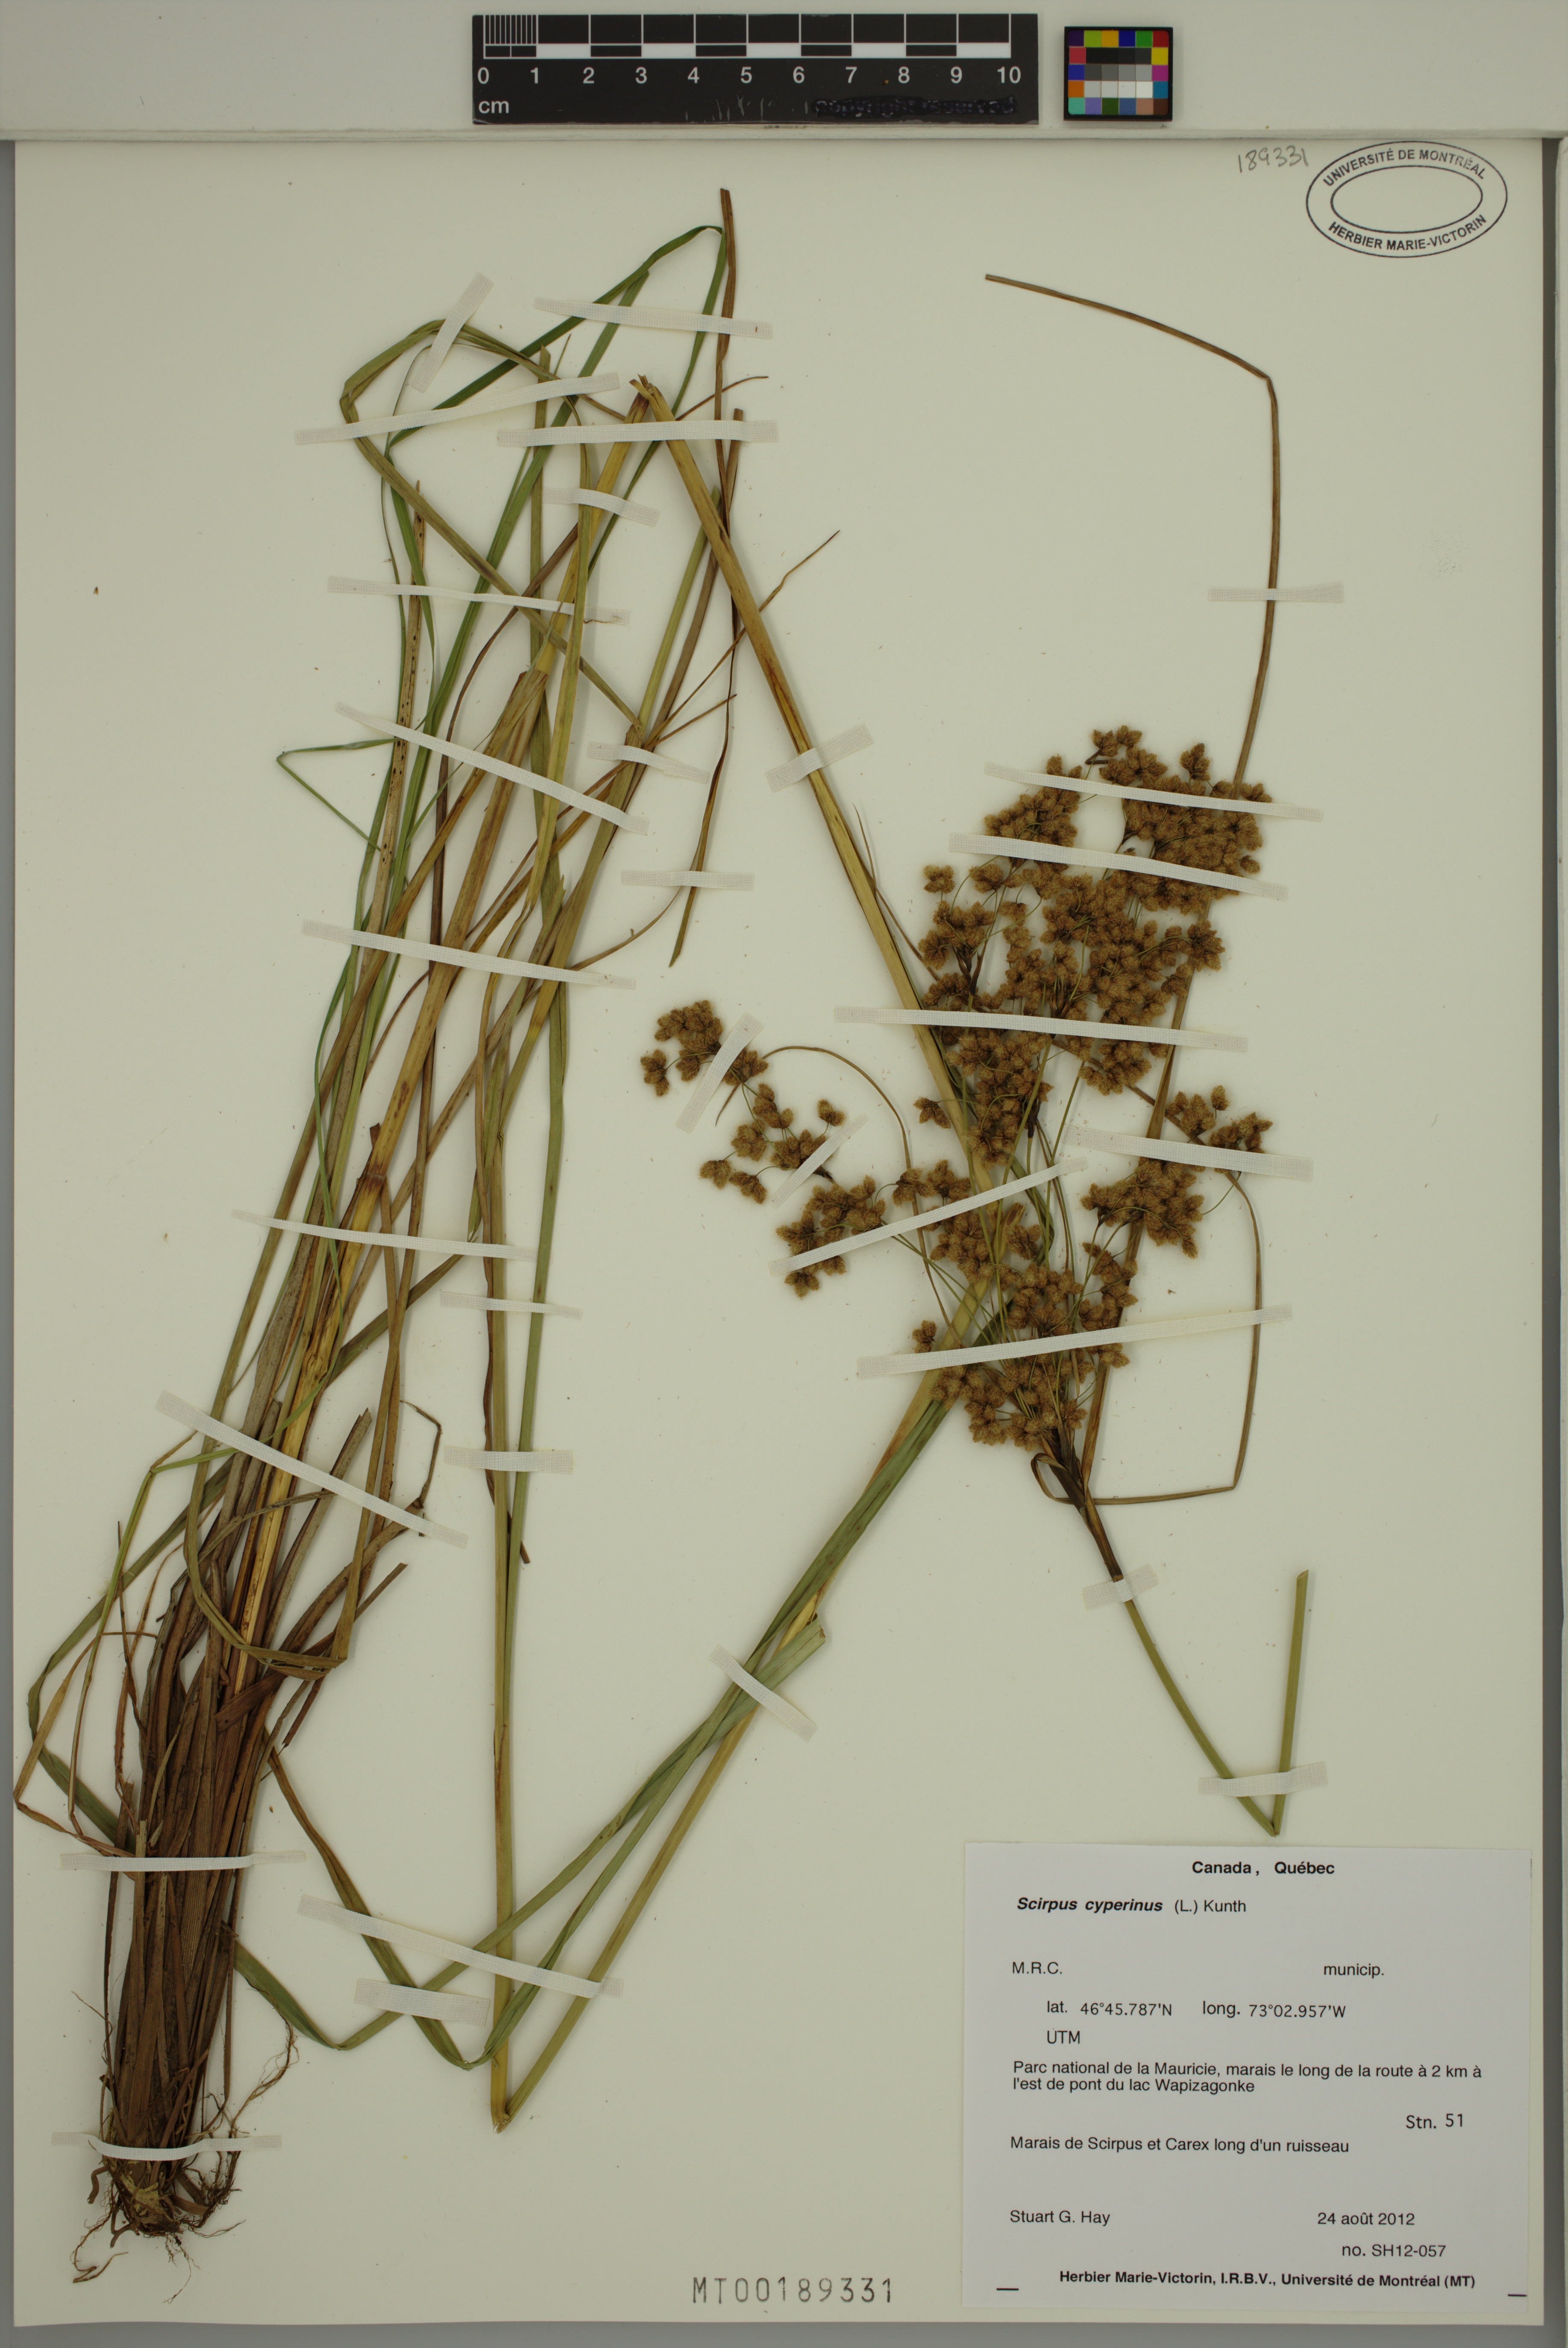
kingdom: Plantae
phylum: Tracheophyta
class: Liliopsida
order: Poales
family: Cyperaceae
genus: Scirpus
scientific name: Scirpus cyperinus
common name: Black-sheathed bulrush
